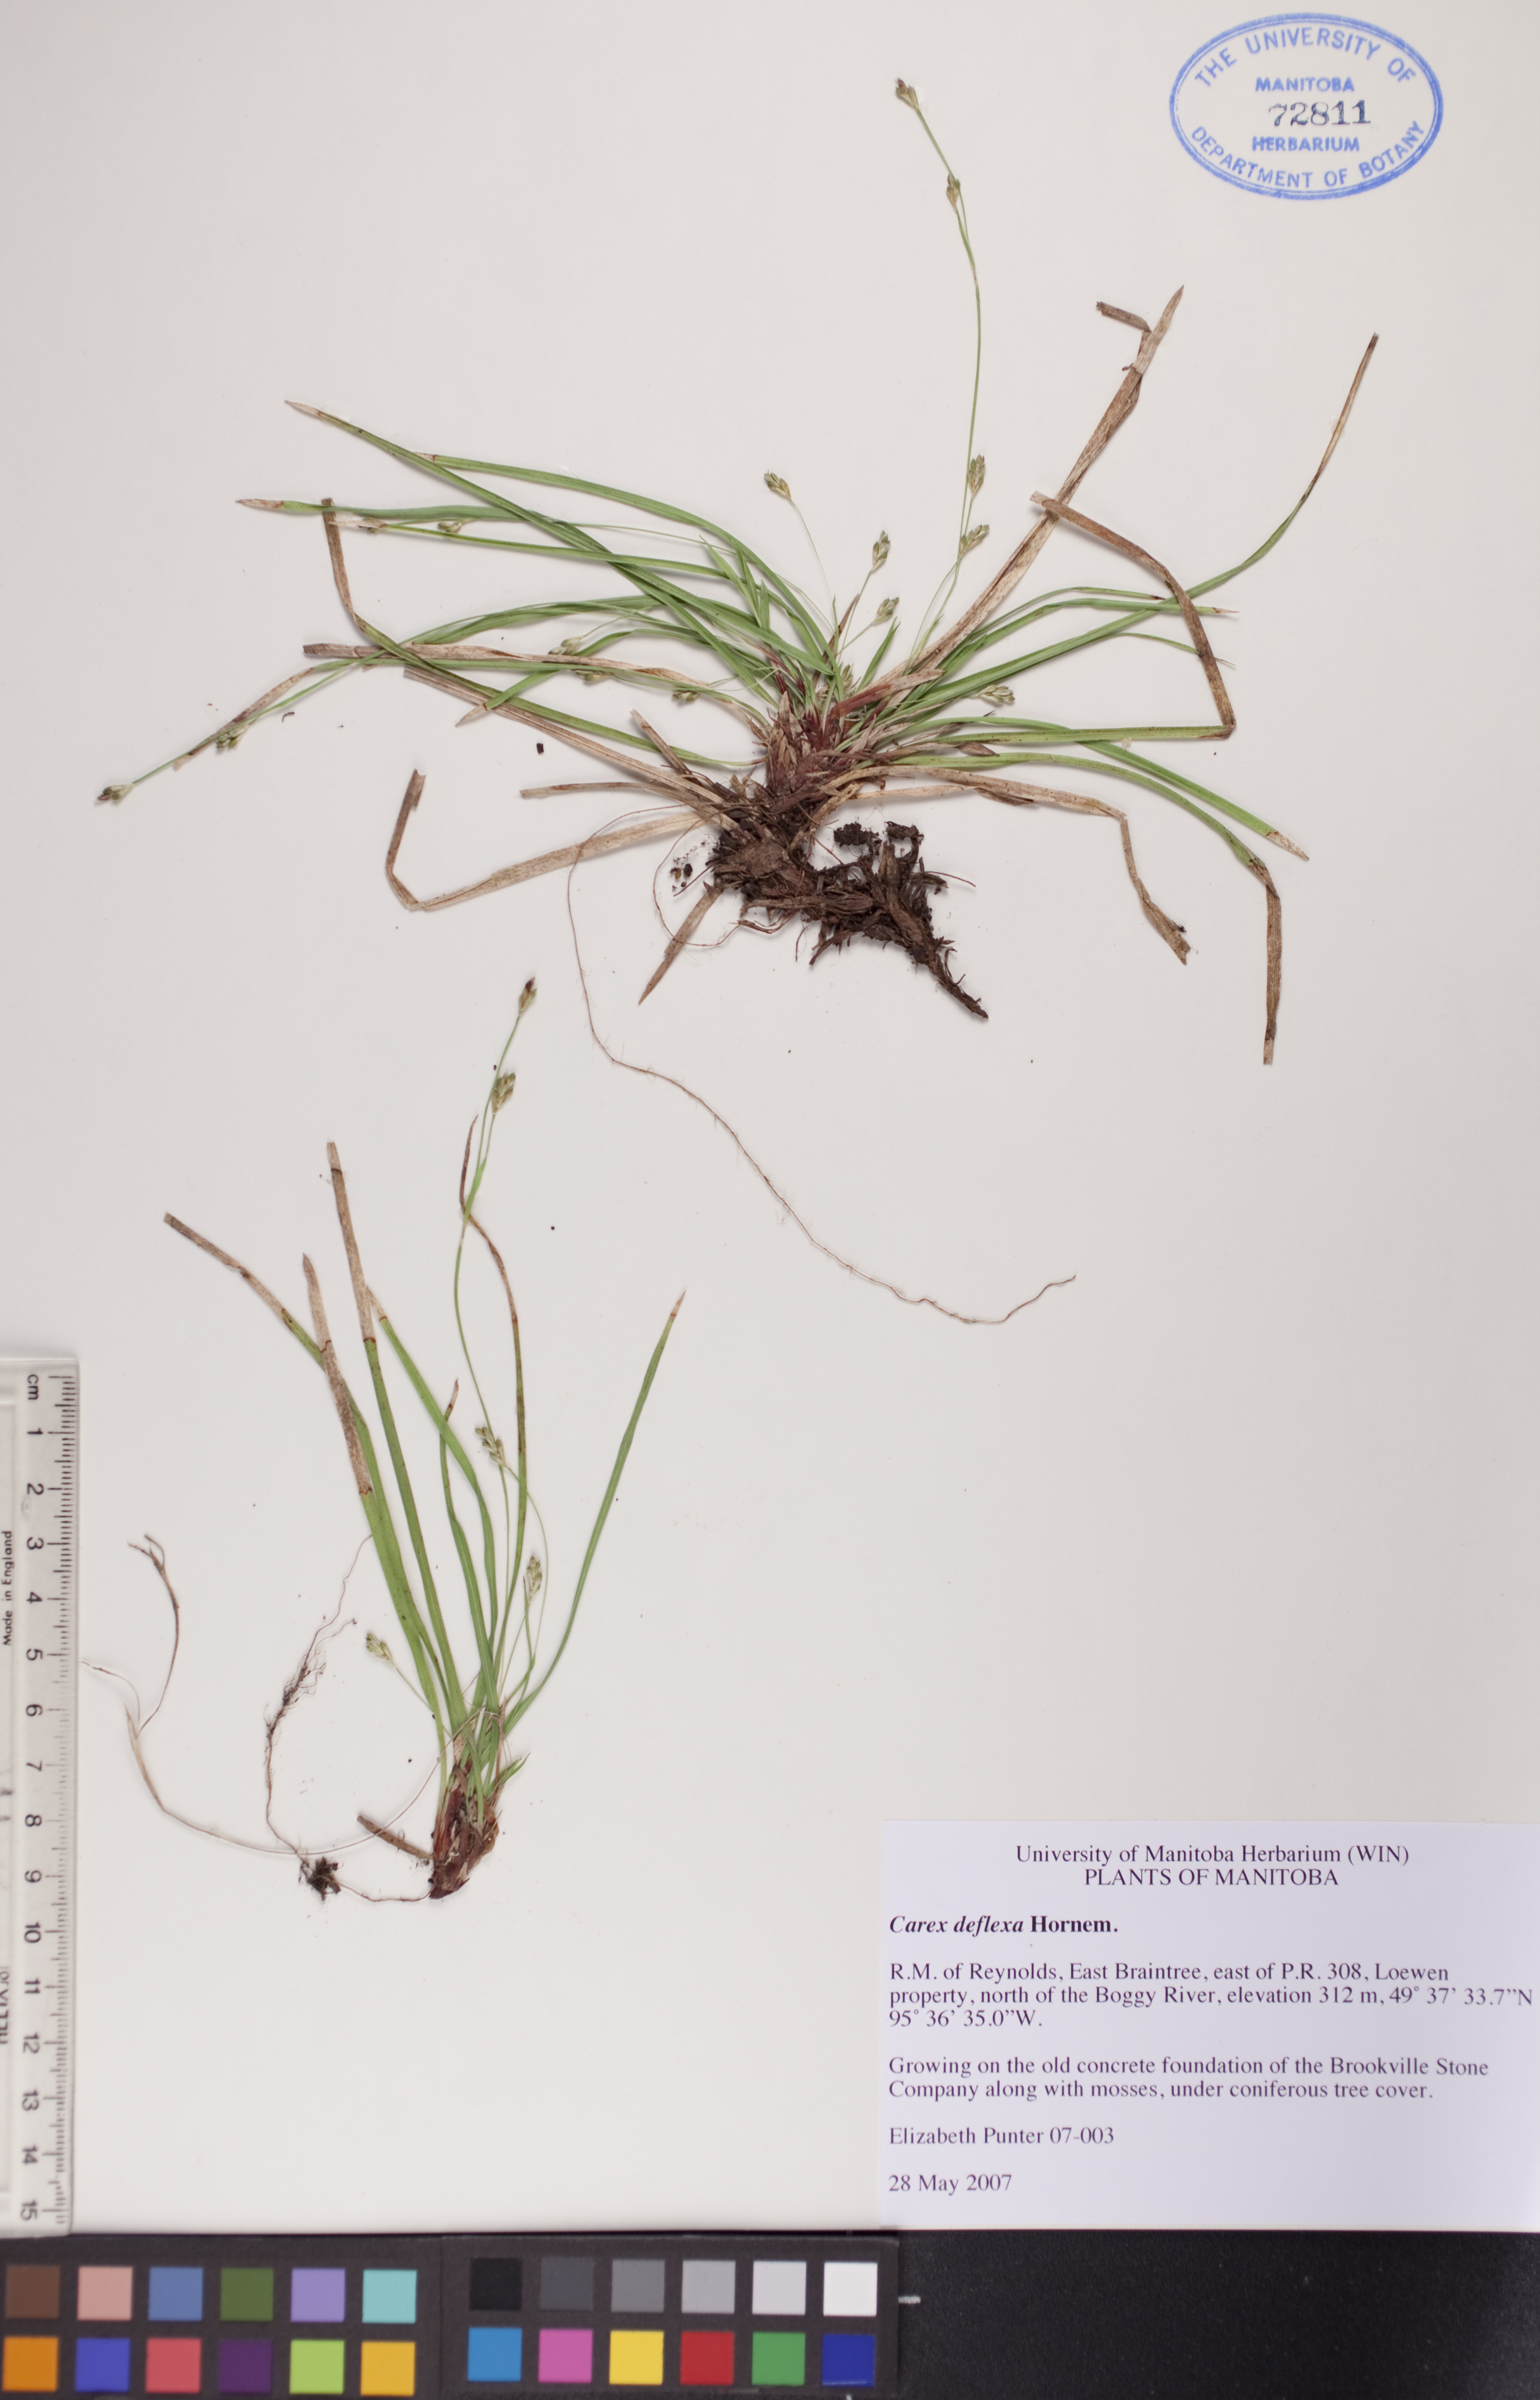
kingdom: Plantae
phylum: Tracheophyta
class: Liliopsida
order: Poales
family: Cyperaceae
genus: Carex
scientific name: Carex deflexa
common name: Bent northern sedge
